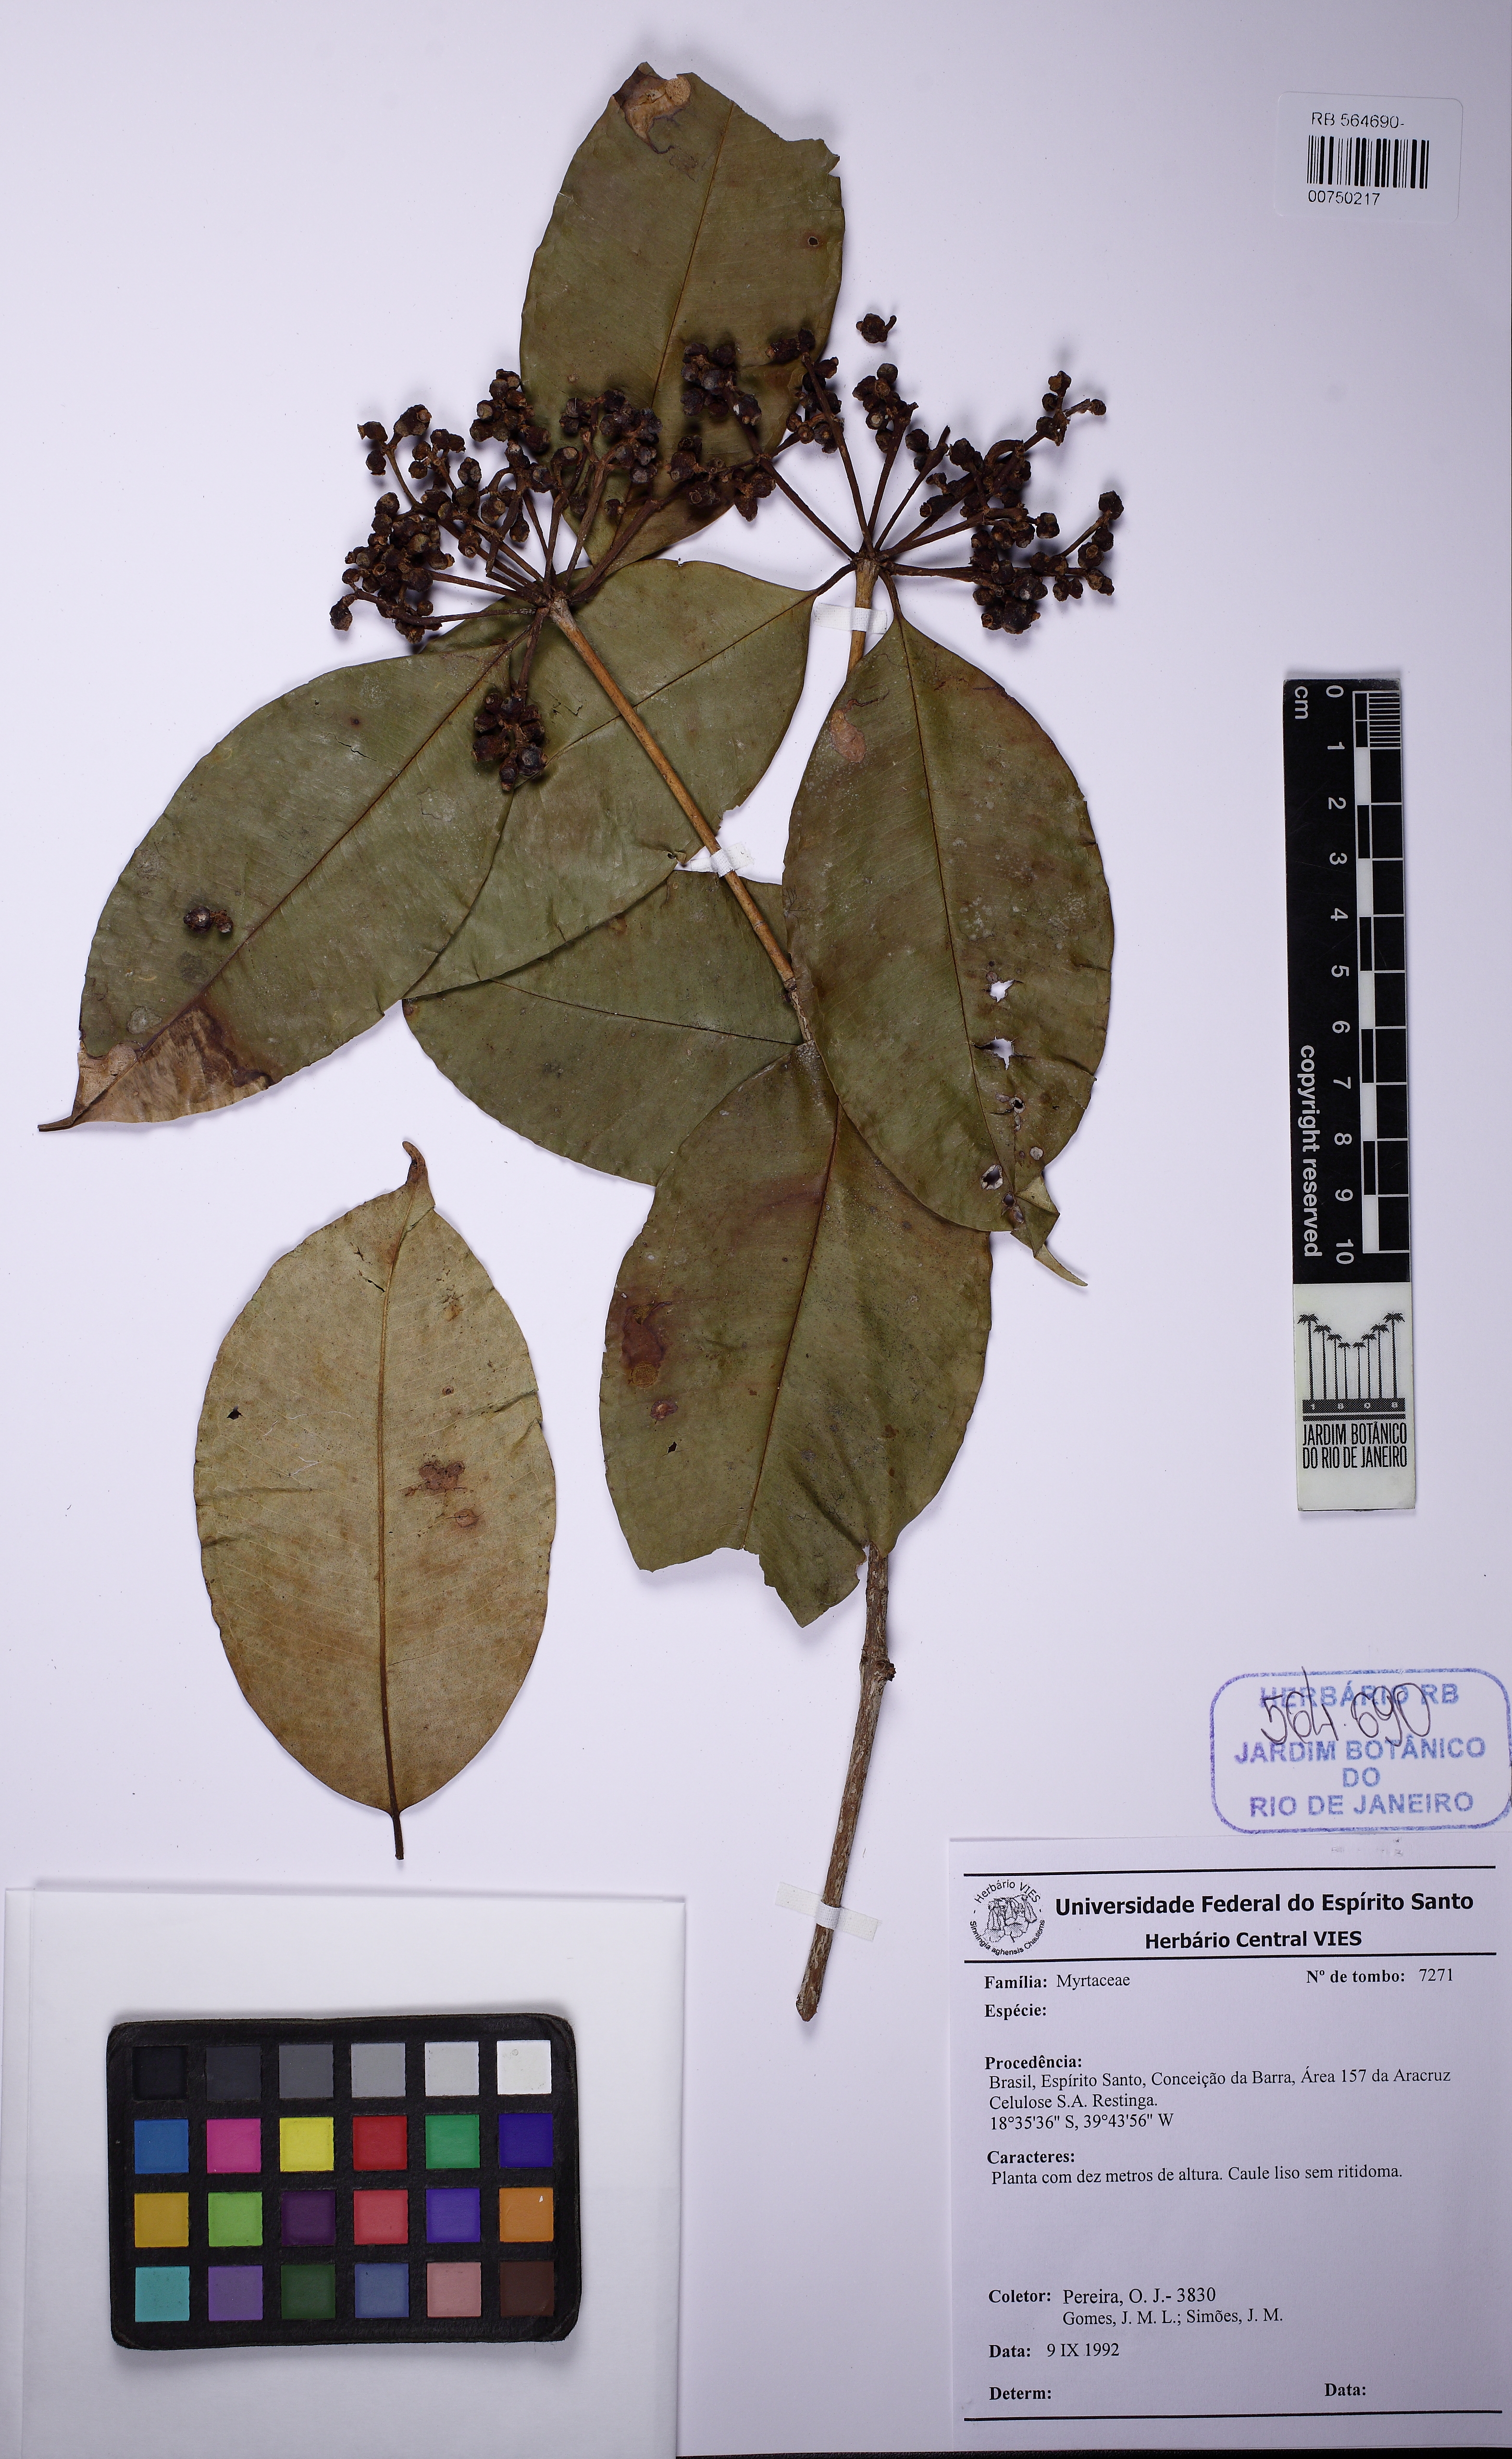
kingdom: Plantae
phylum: Tracheophyta
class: Magnoliopsida
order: Myrtales
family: Myrtaceae
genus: Myrcia
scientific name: Myrcia tenuifolia
